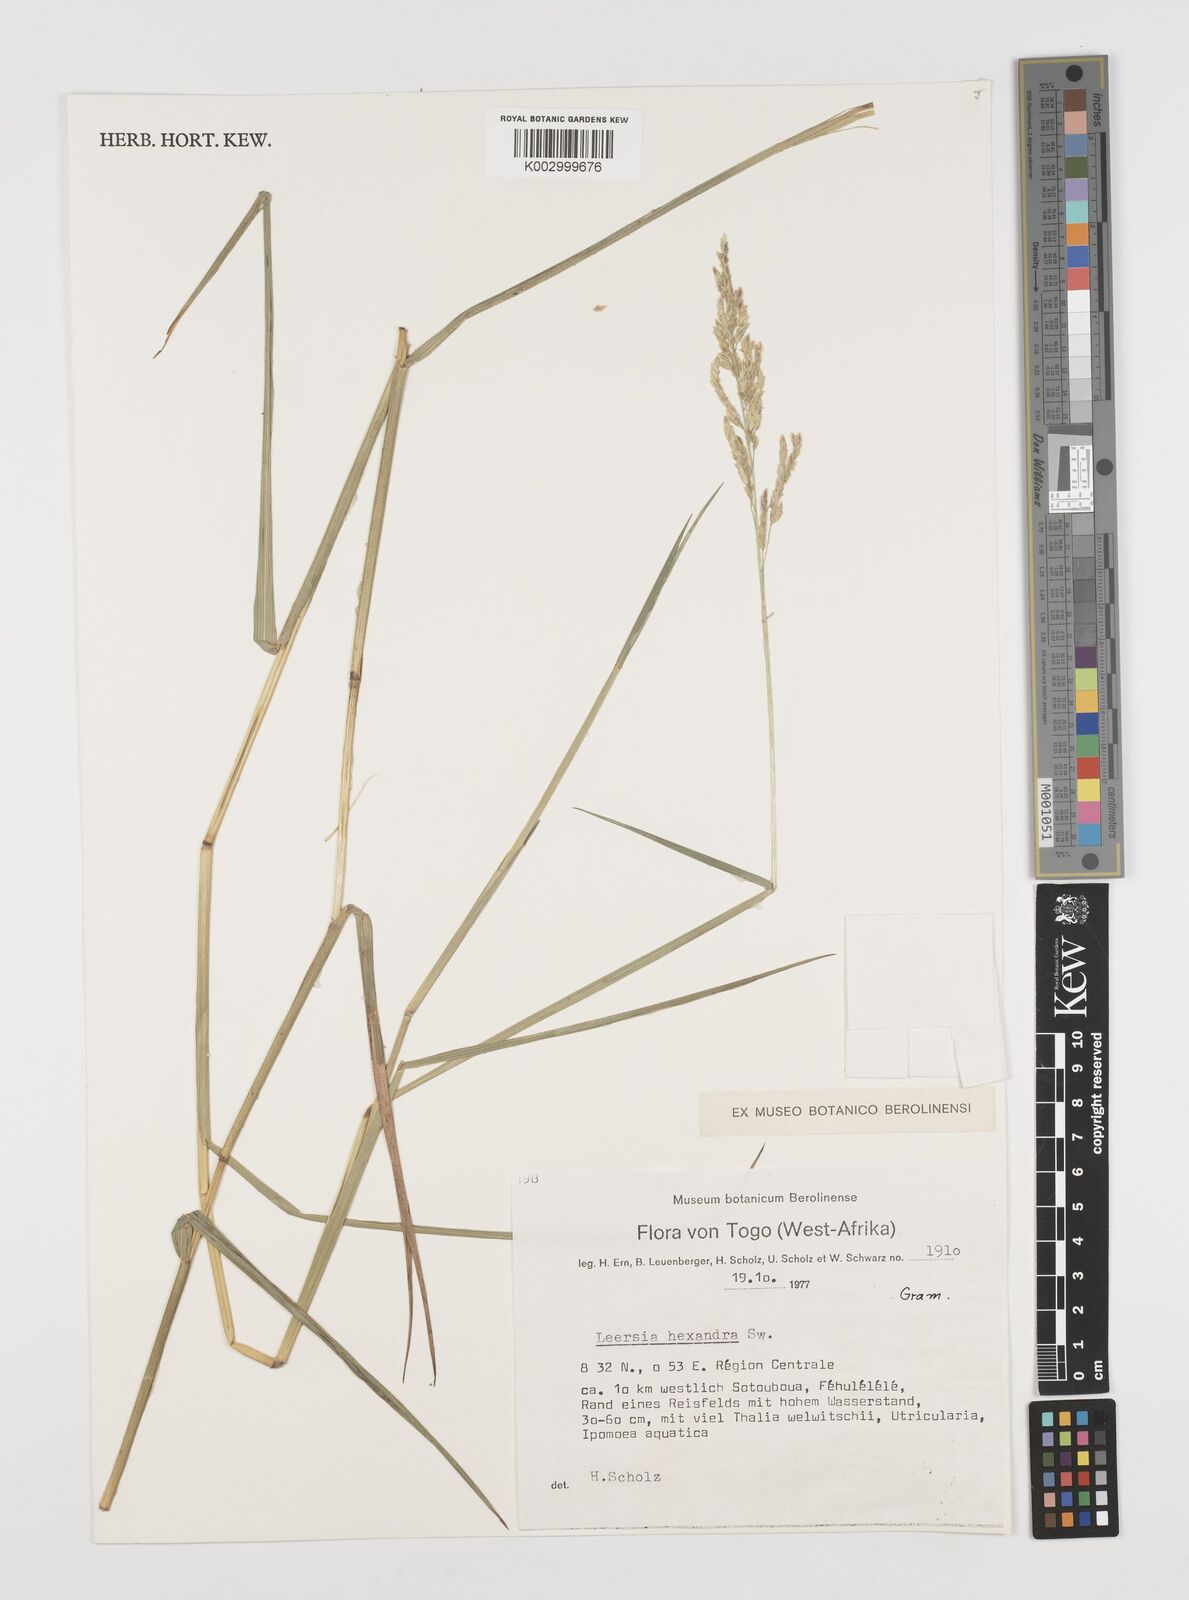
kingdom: Plantae
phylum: Tracheophyta
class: Liliopsida
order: Poales
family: Poaceae
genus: Leersia
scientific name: Leersia hexandra
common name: Southern cut grass
